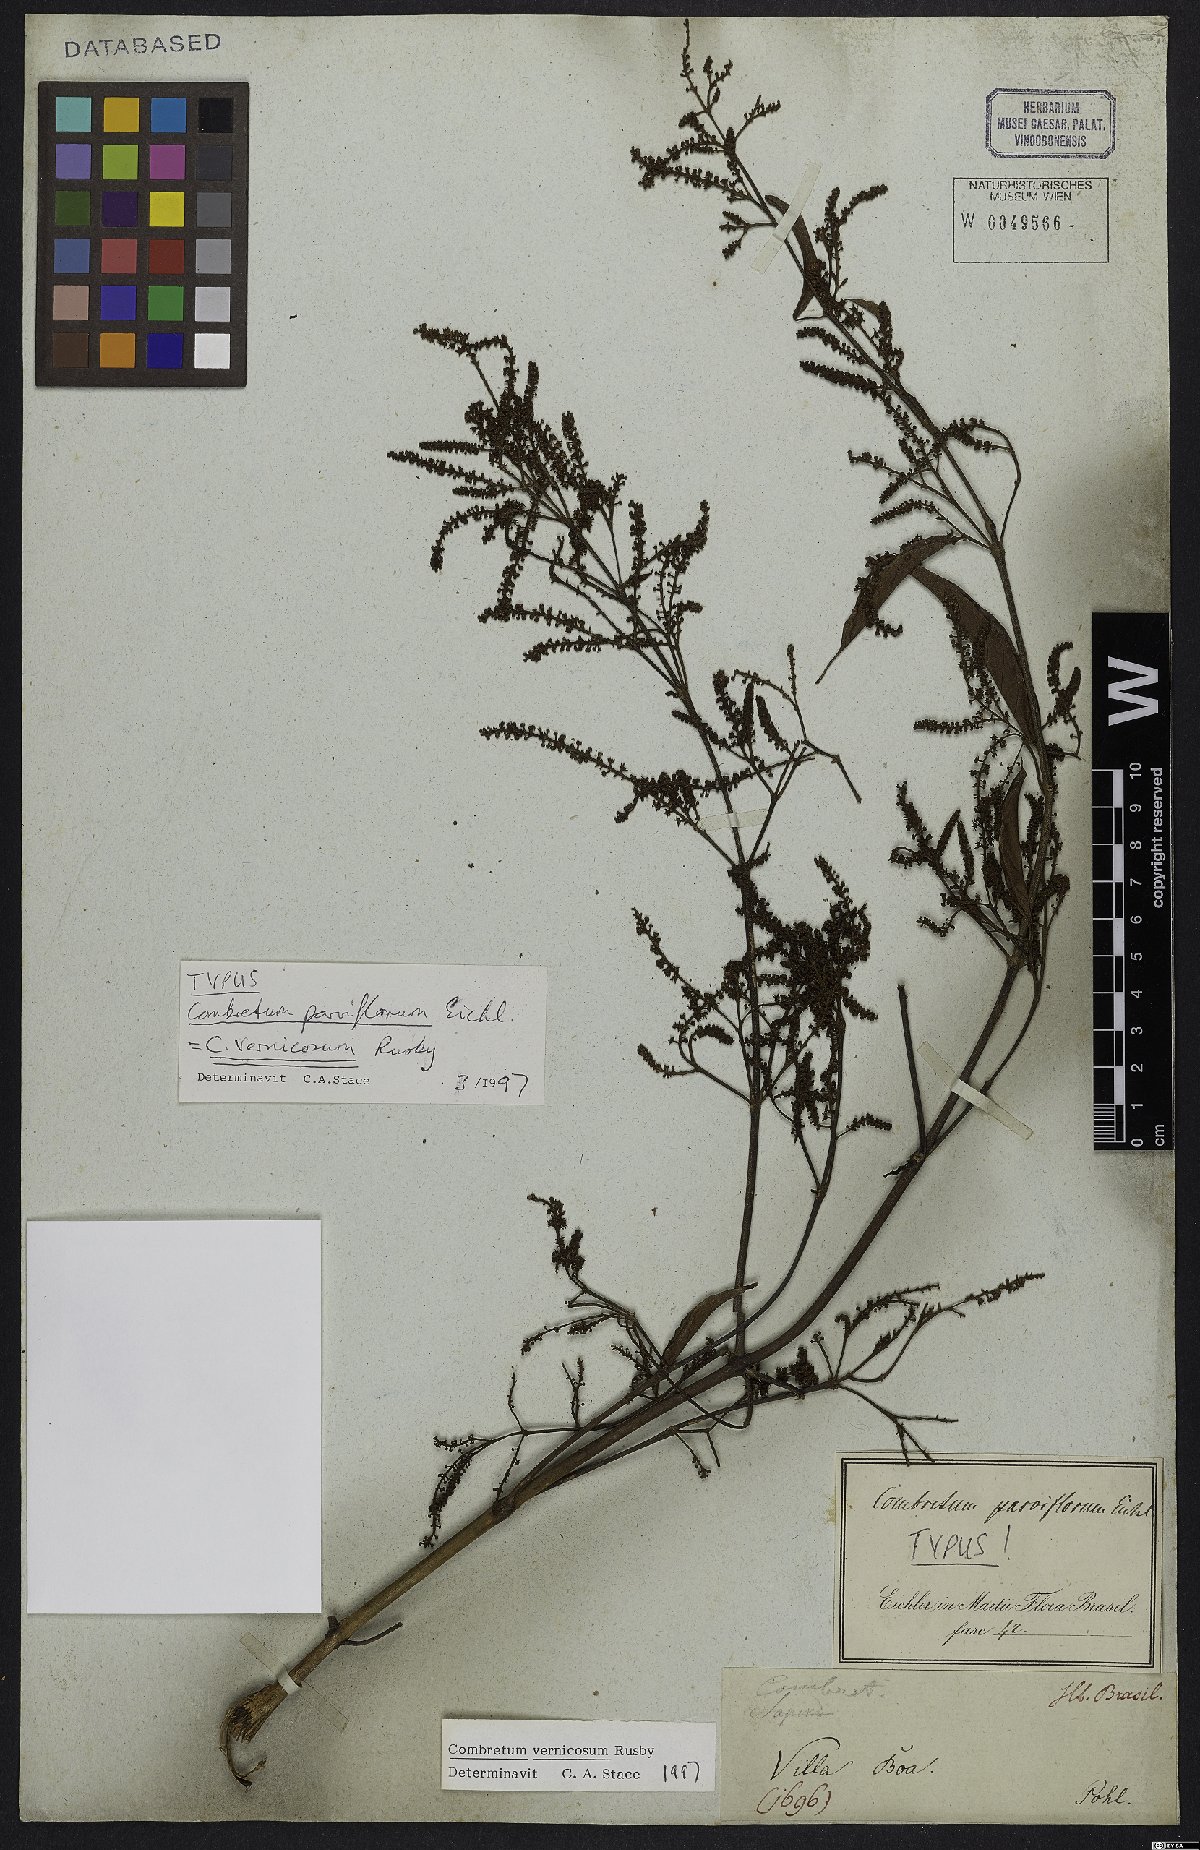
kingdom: Plantae
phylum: Tracheophyta
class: Magnoliopsida
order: Myrtales
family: Combretaceae
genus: Combretum
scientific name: Combretum vernicosum
